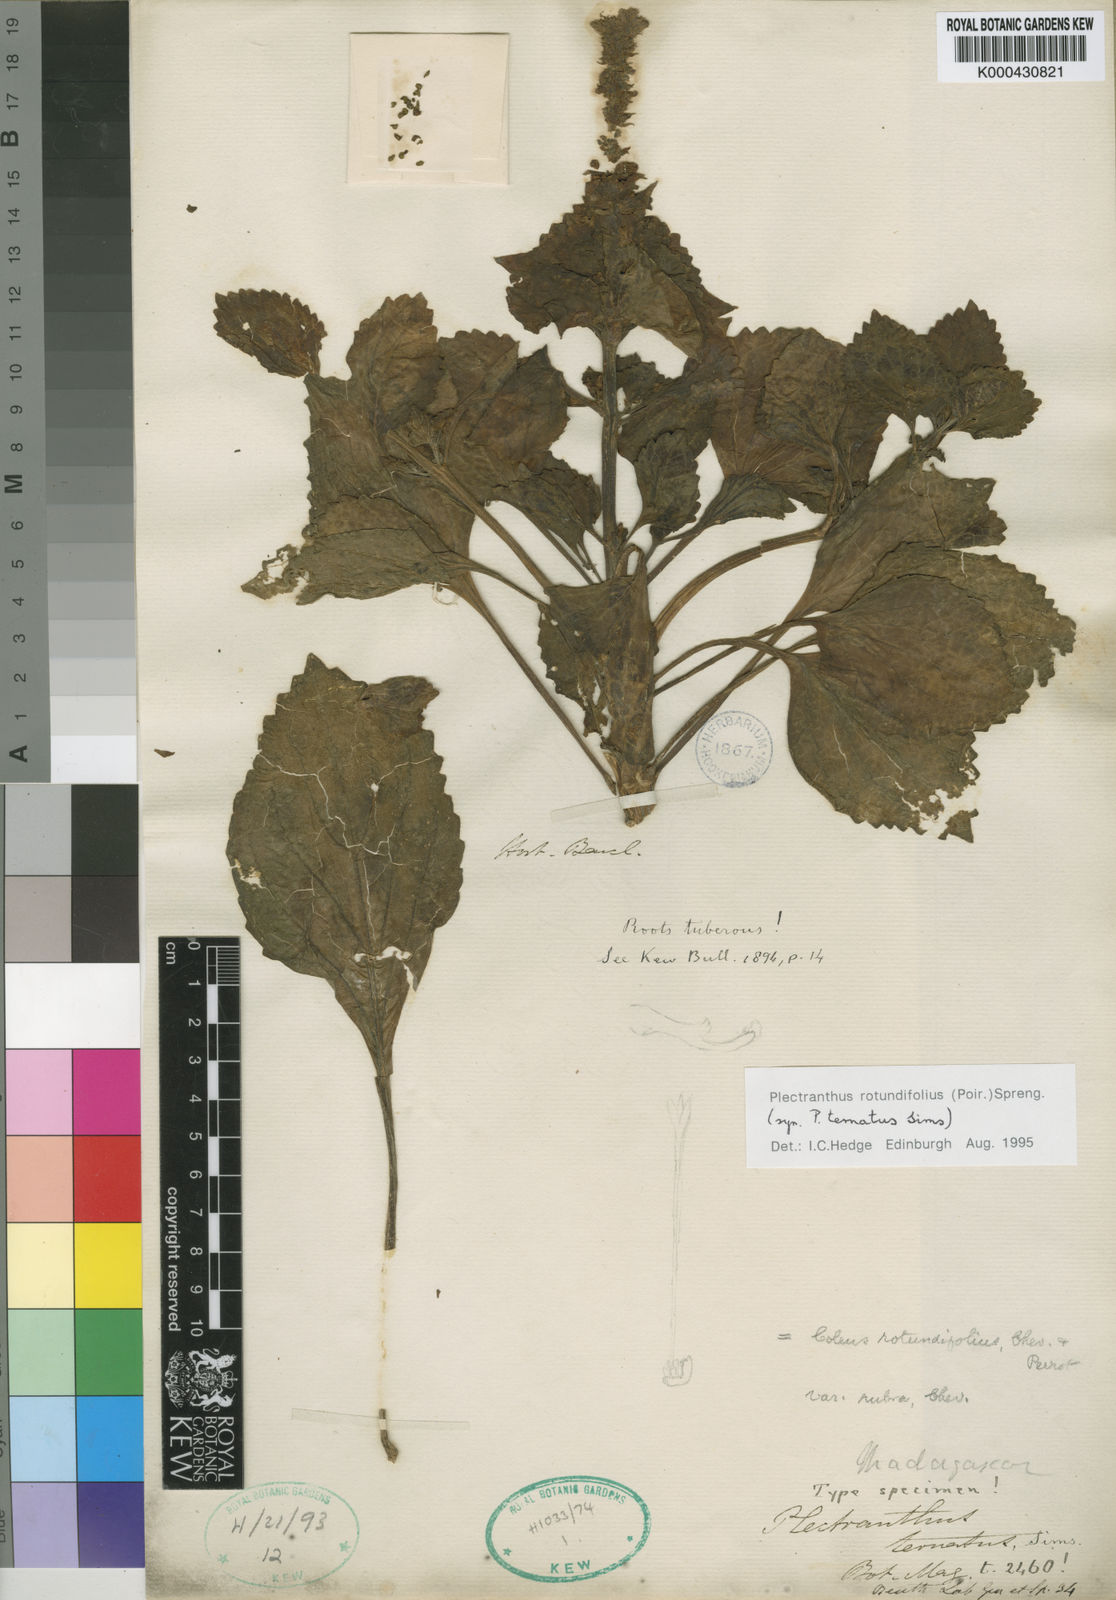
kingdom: Plantae
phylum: Tracheophyta
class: Magnoliopsida
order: Lamiales
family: Lamiaceae
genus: Coleus
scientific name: Coleus rotundifolius
